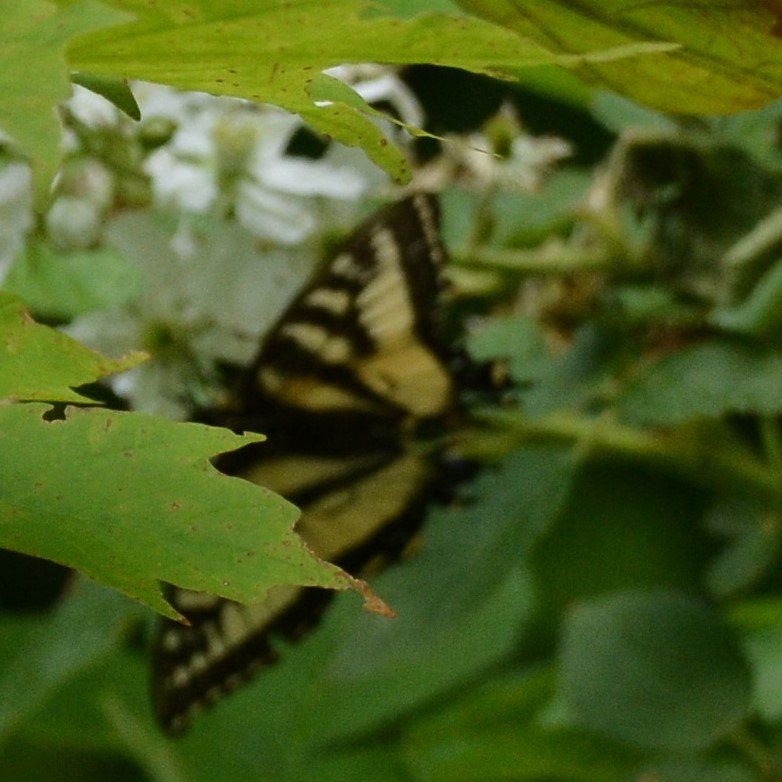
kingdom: Animalia
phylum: Arthropoda
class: Insecta
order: Lepidoptera
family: Papilionidae
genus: Pterourus
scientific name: Pterourus canadensis
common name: Canadian Tiger Swallowtail
